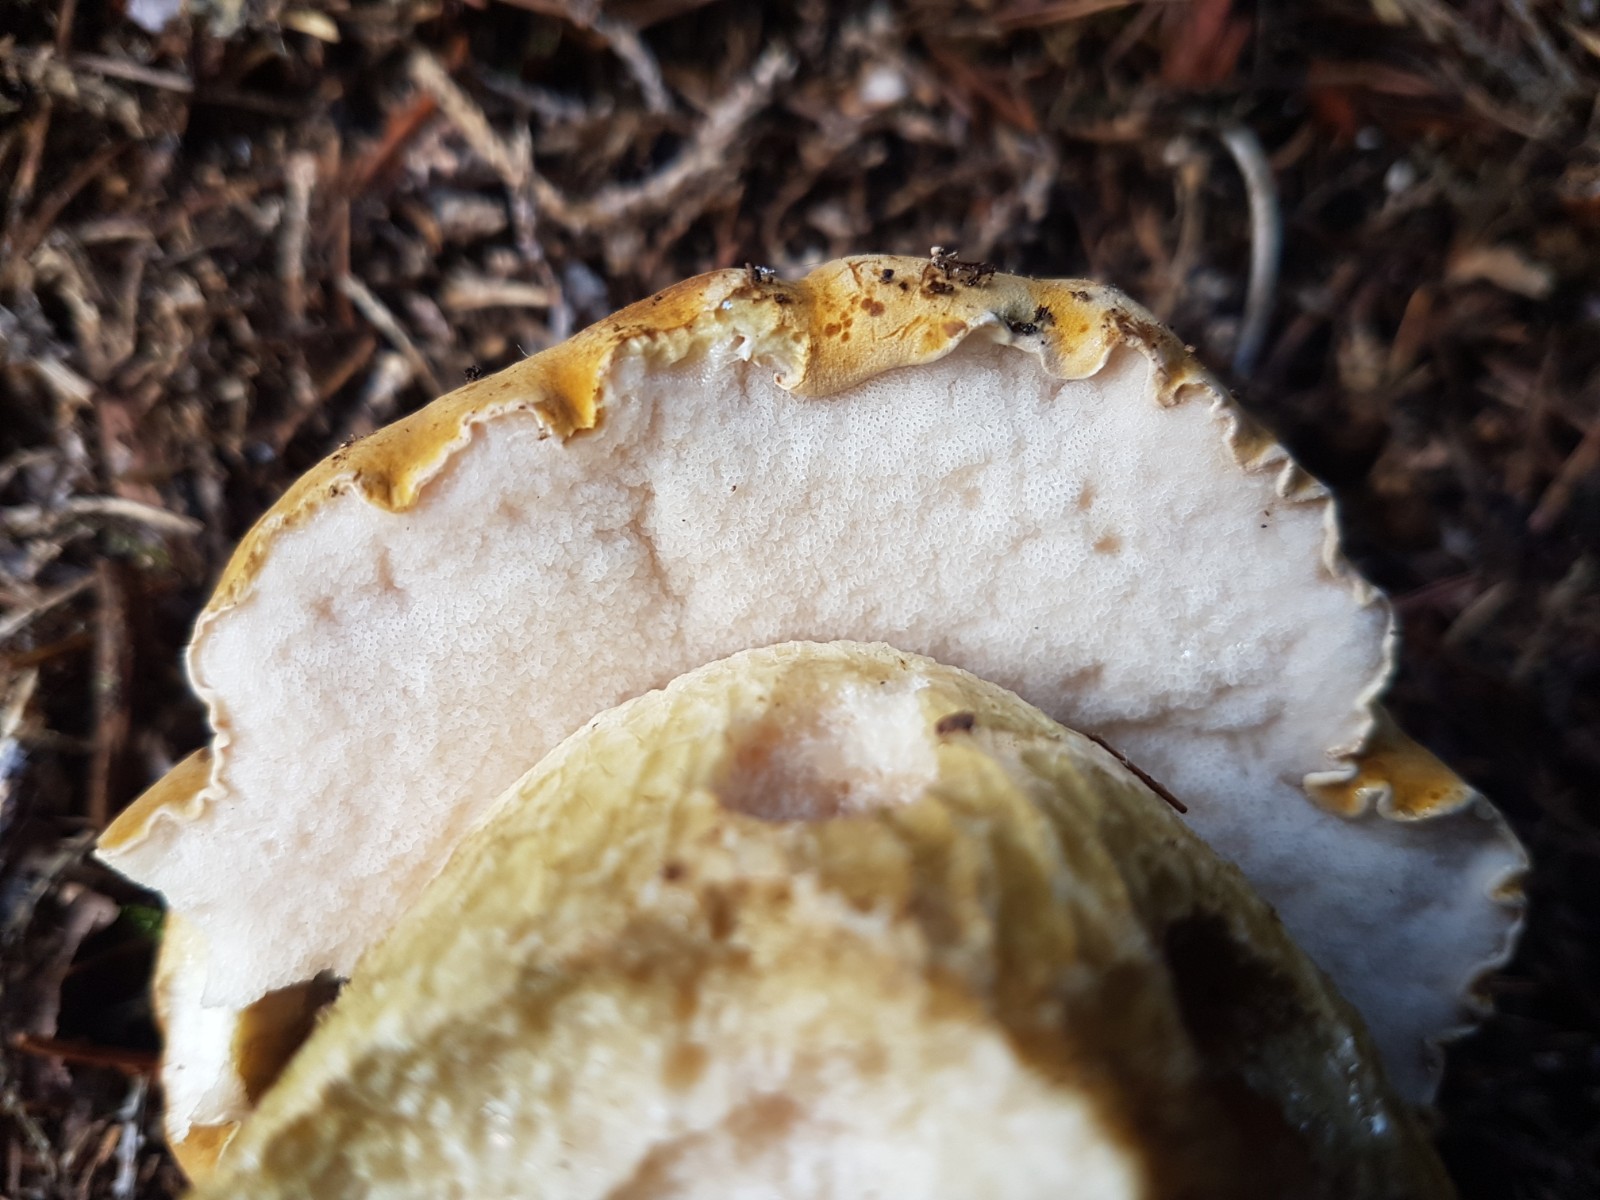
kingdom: Fungi
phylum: Basidiomycota
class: Agaricomycetes
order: Boletales
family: Boletaceae
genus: Tylopilus
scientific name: Tylopilus felleus
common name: galderørhat
